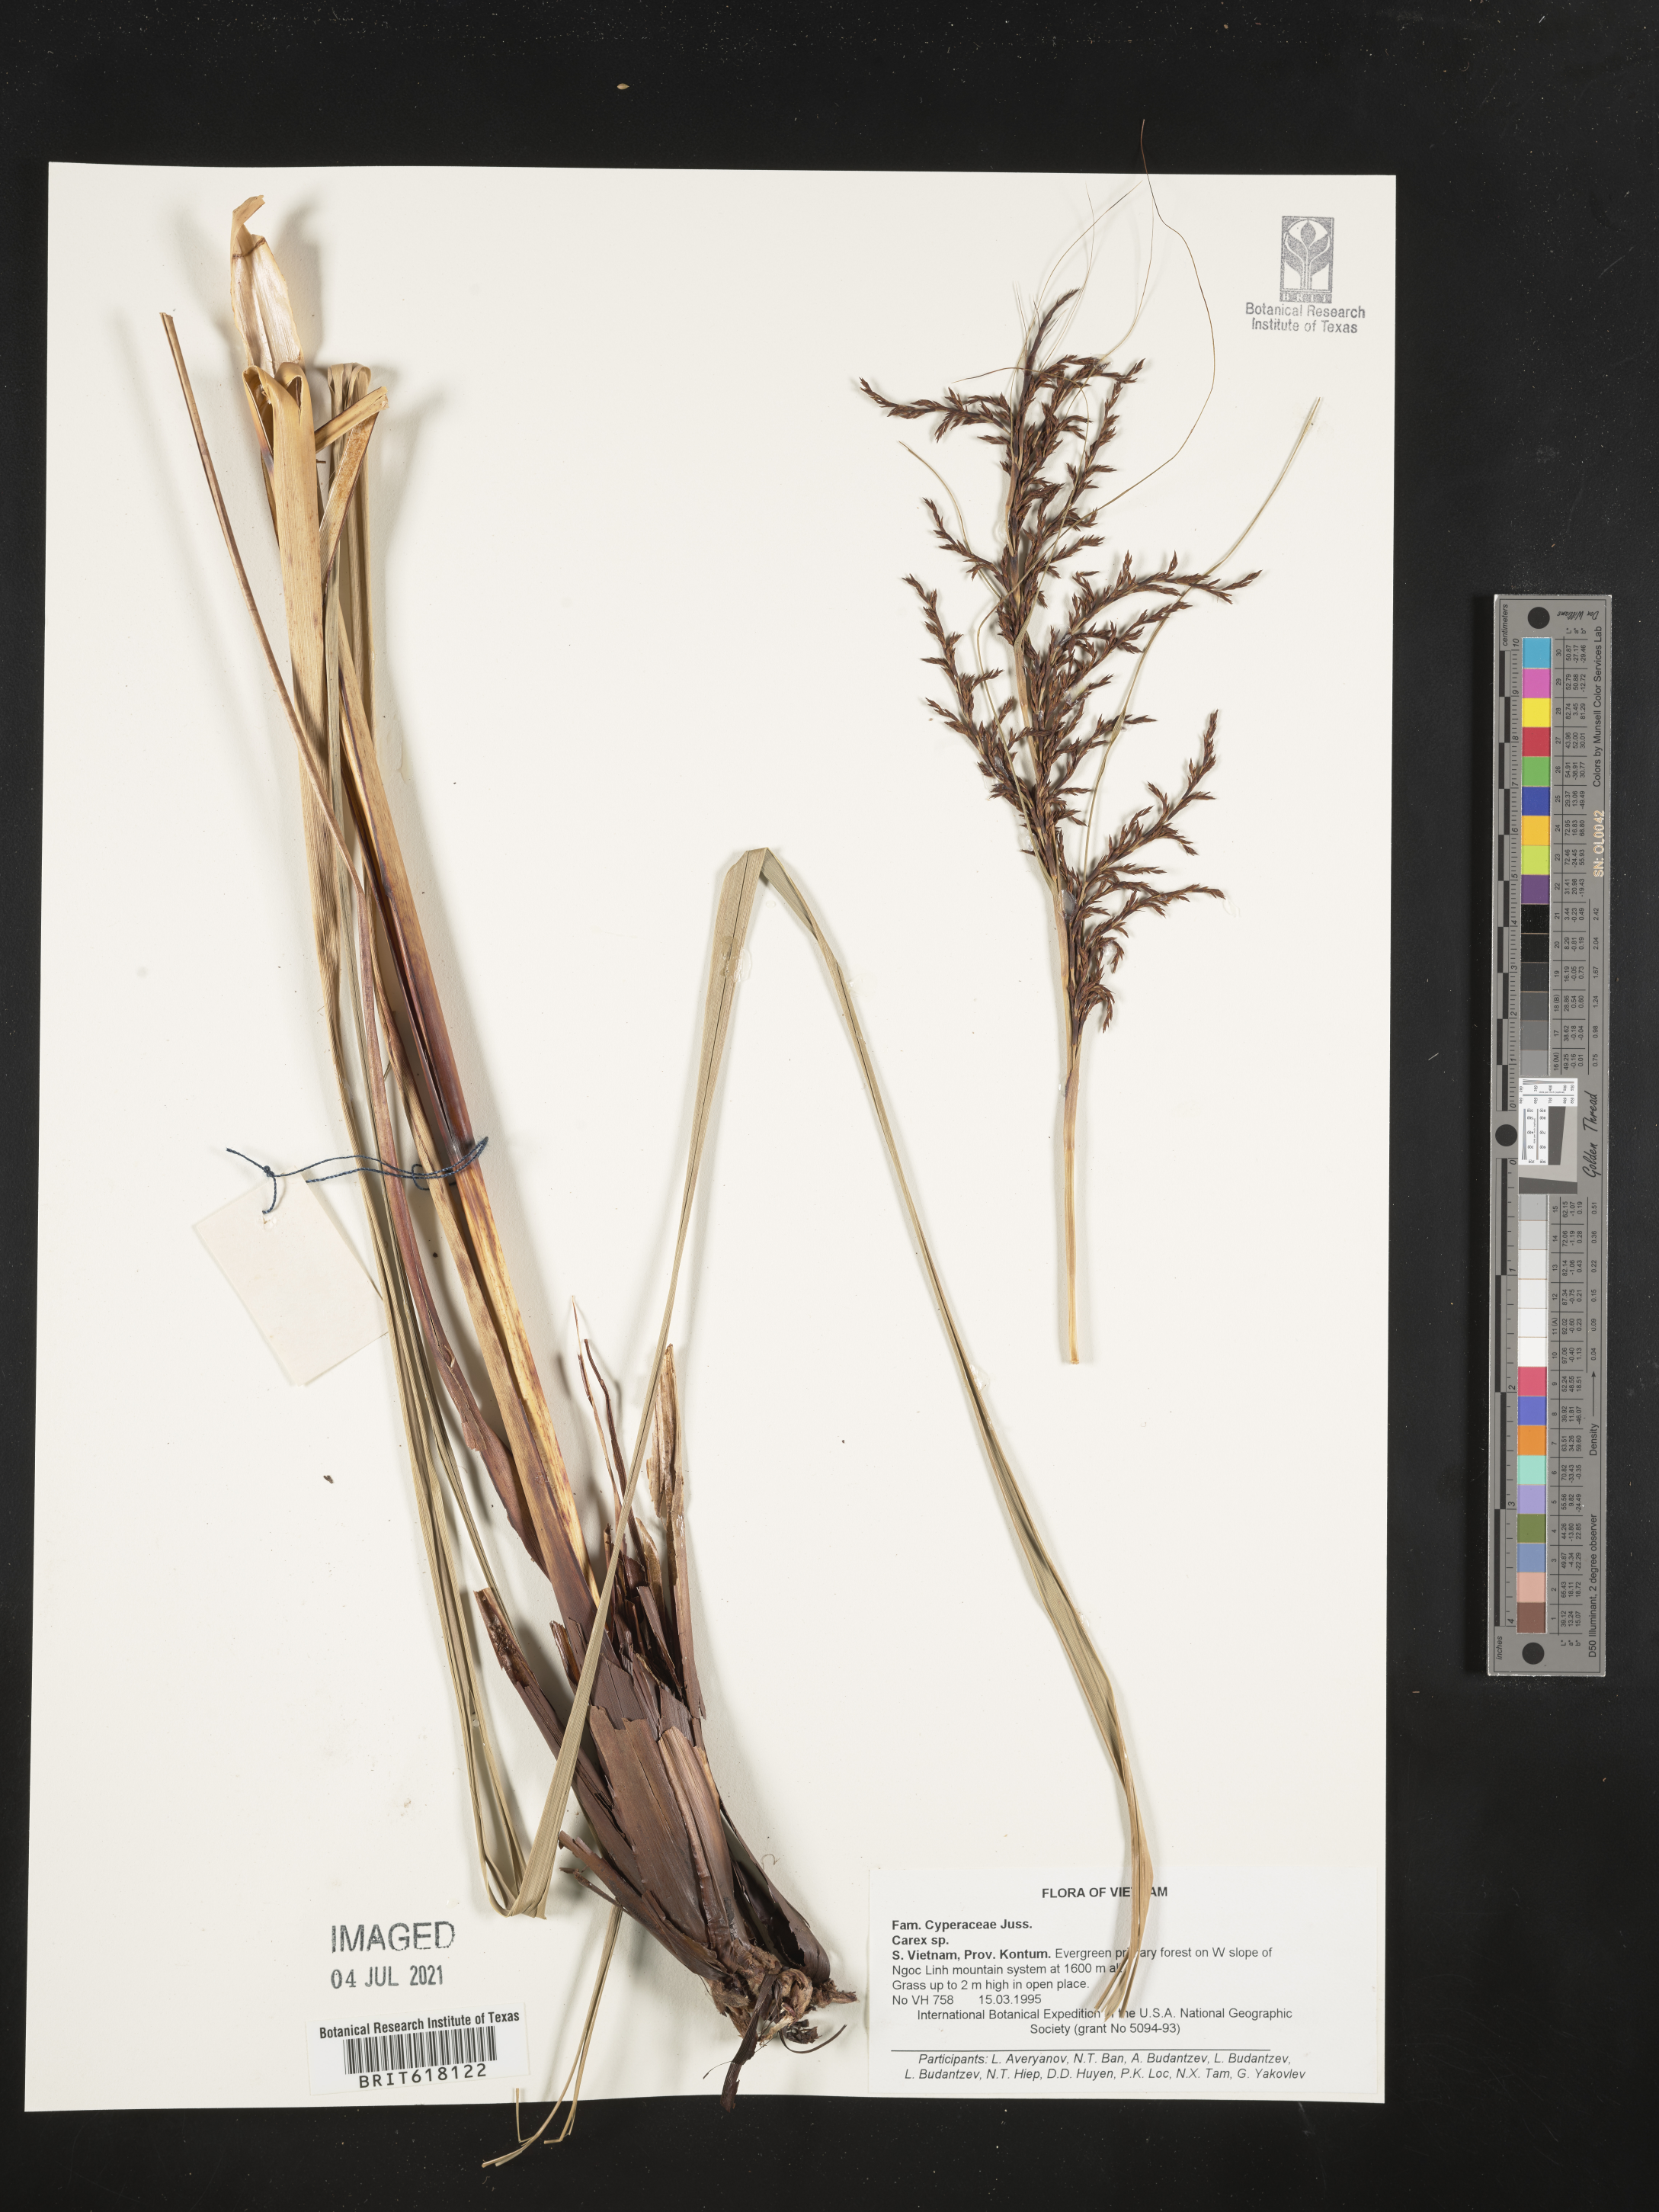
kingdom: Plantae
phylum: Tracheophyta
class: Liliopsida
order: Poales
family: Cyperaceae
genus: Carex
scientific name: Carex
